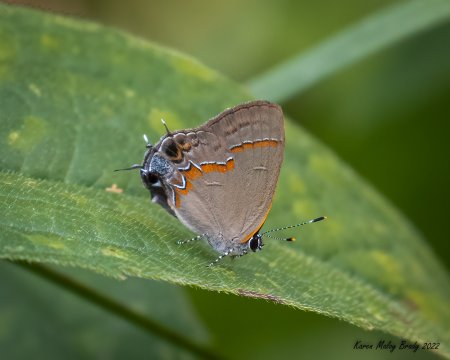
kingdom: Animalia
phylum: Arthropoda
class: Insecta
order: Lepidoptera
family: Lycaenidae
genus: Calycopis
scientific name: Calycopis cecrops
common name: Red-banded Hairstreak
